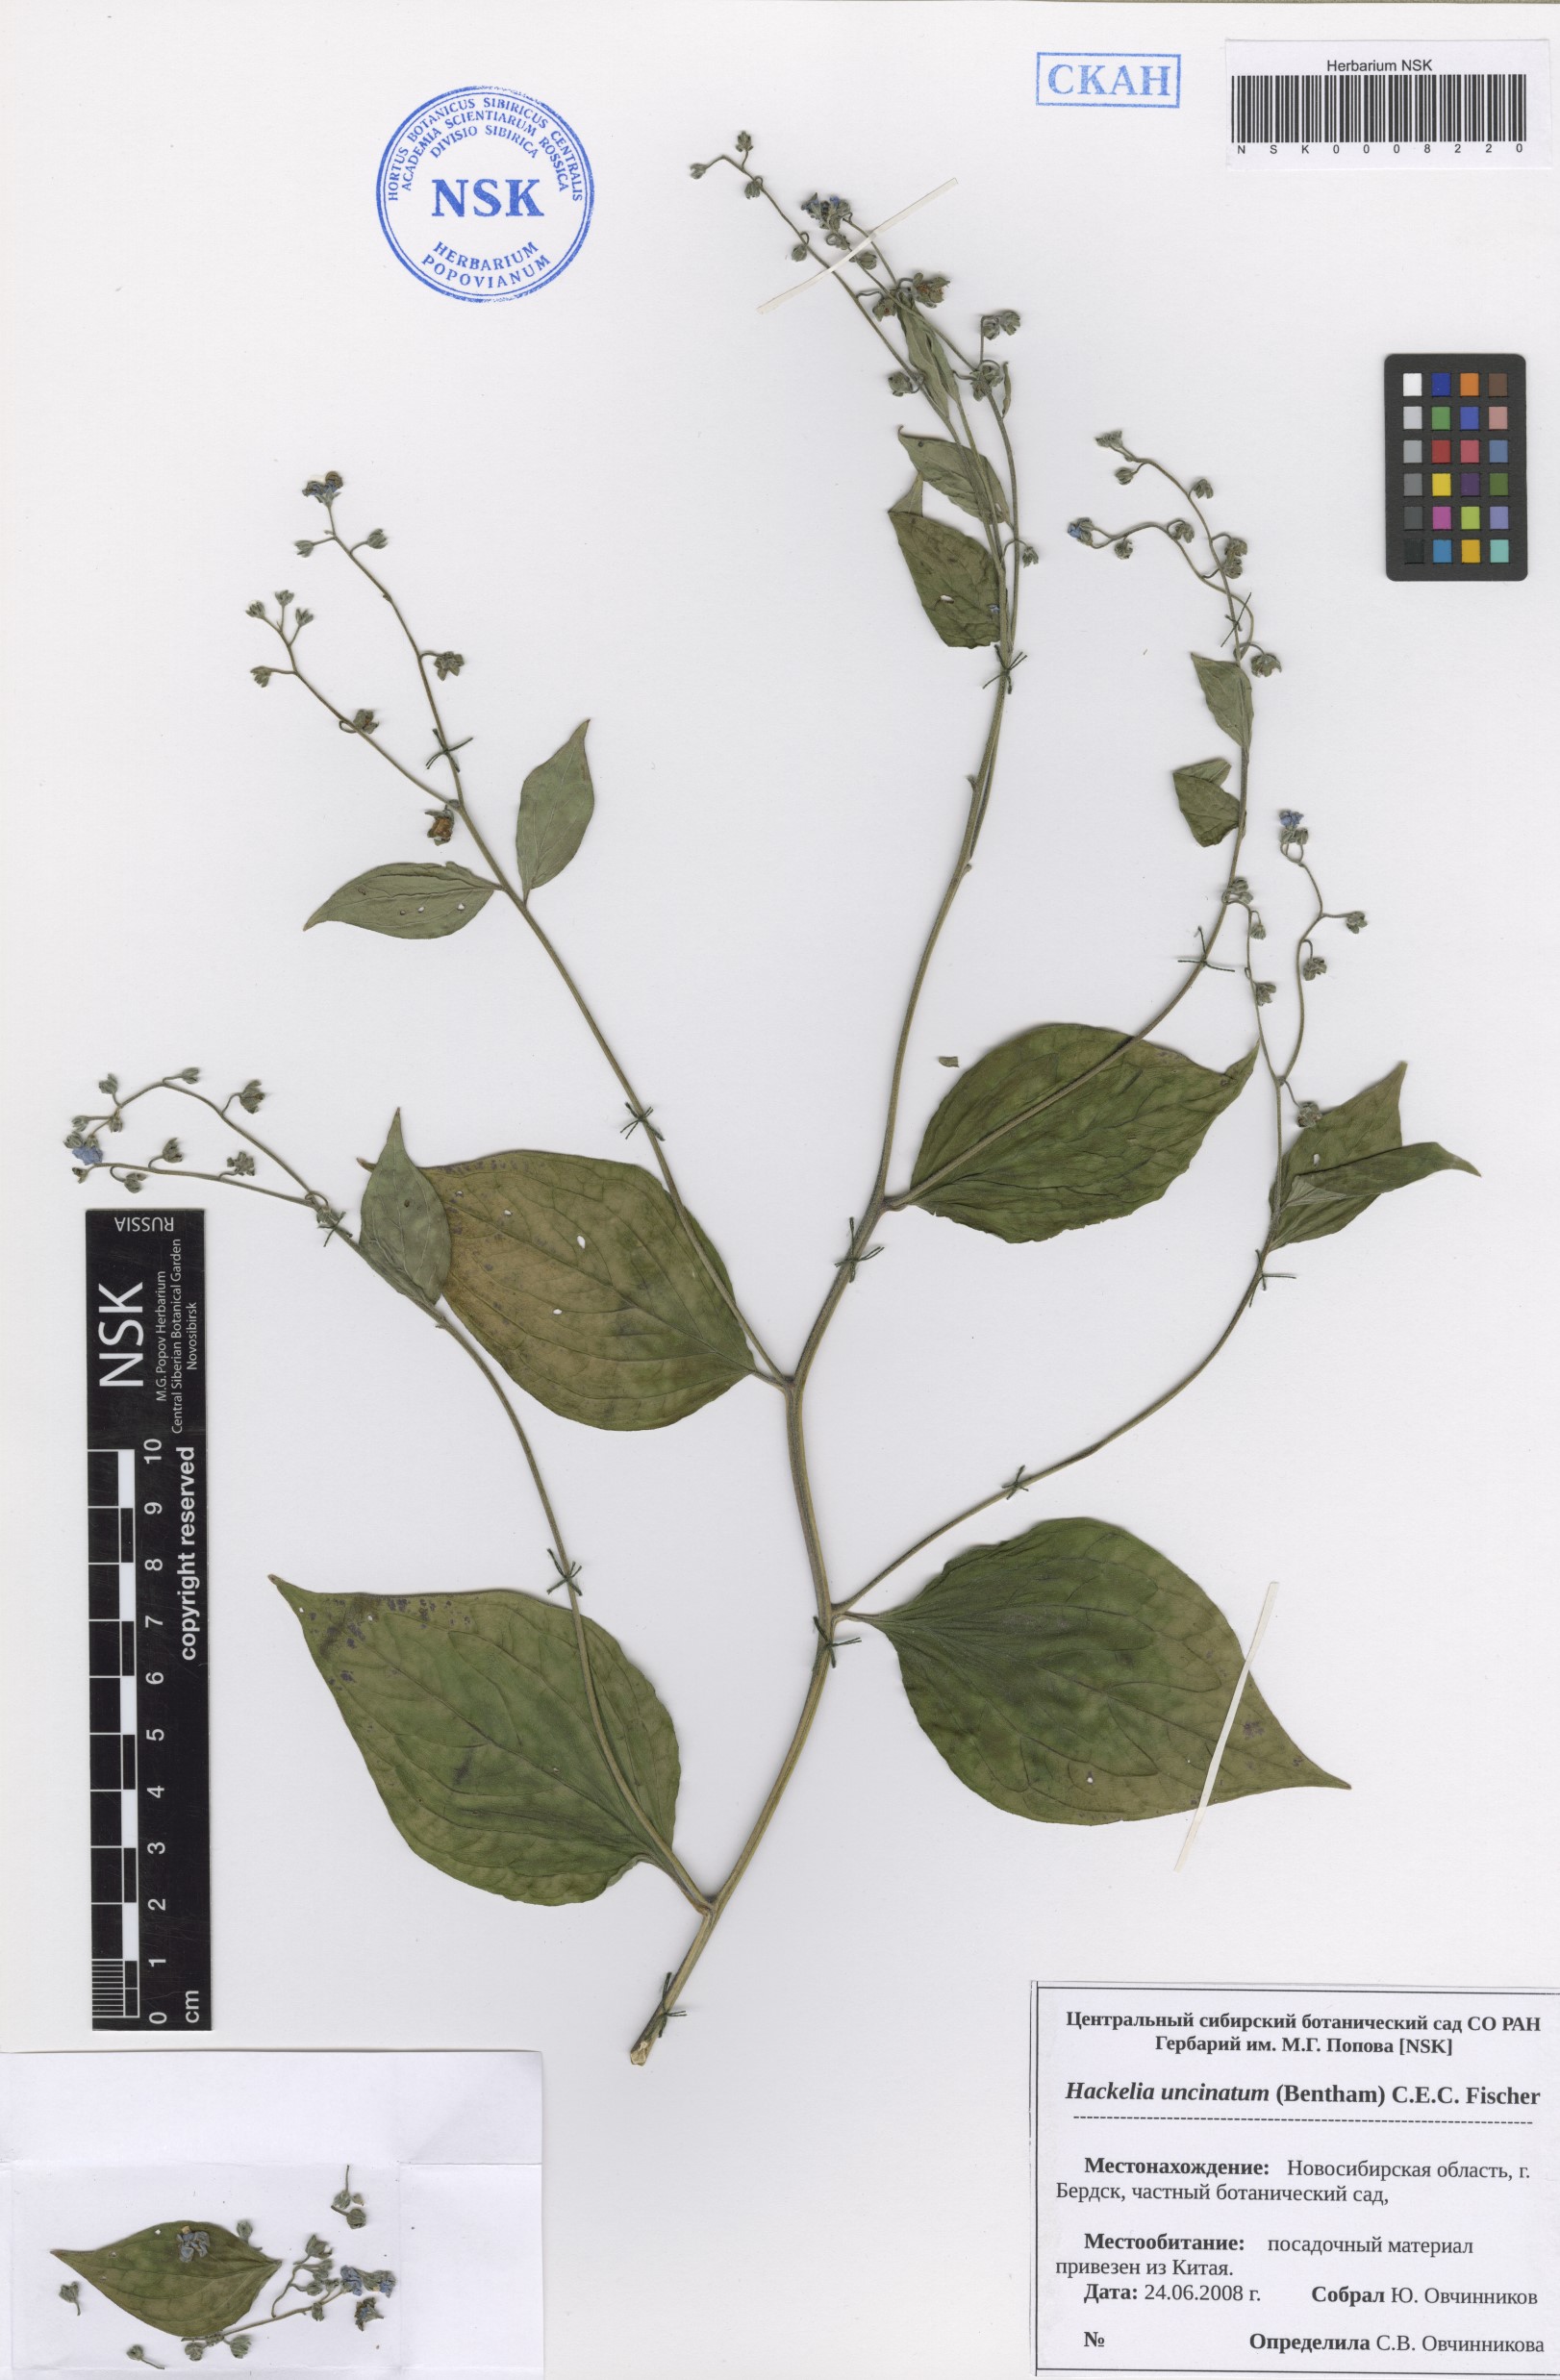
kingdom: Plantae
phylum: Tracheophyta
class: Magnoliopsida
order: Boraginales
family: Boraginaceae
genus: Hackelia
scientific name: Hackelia uncinata
